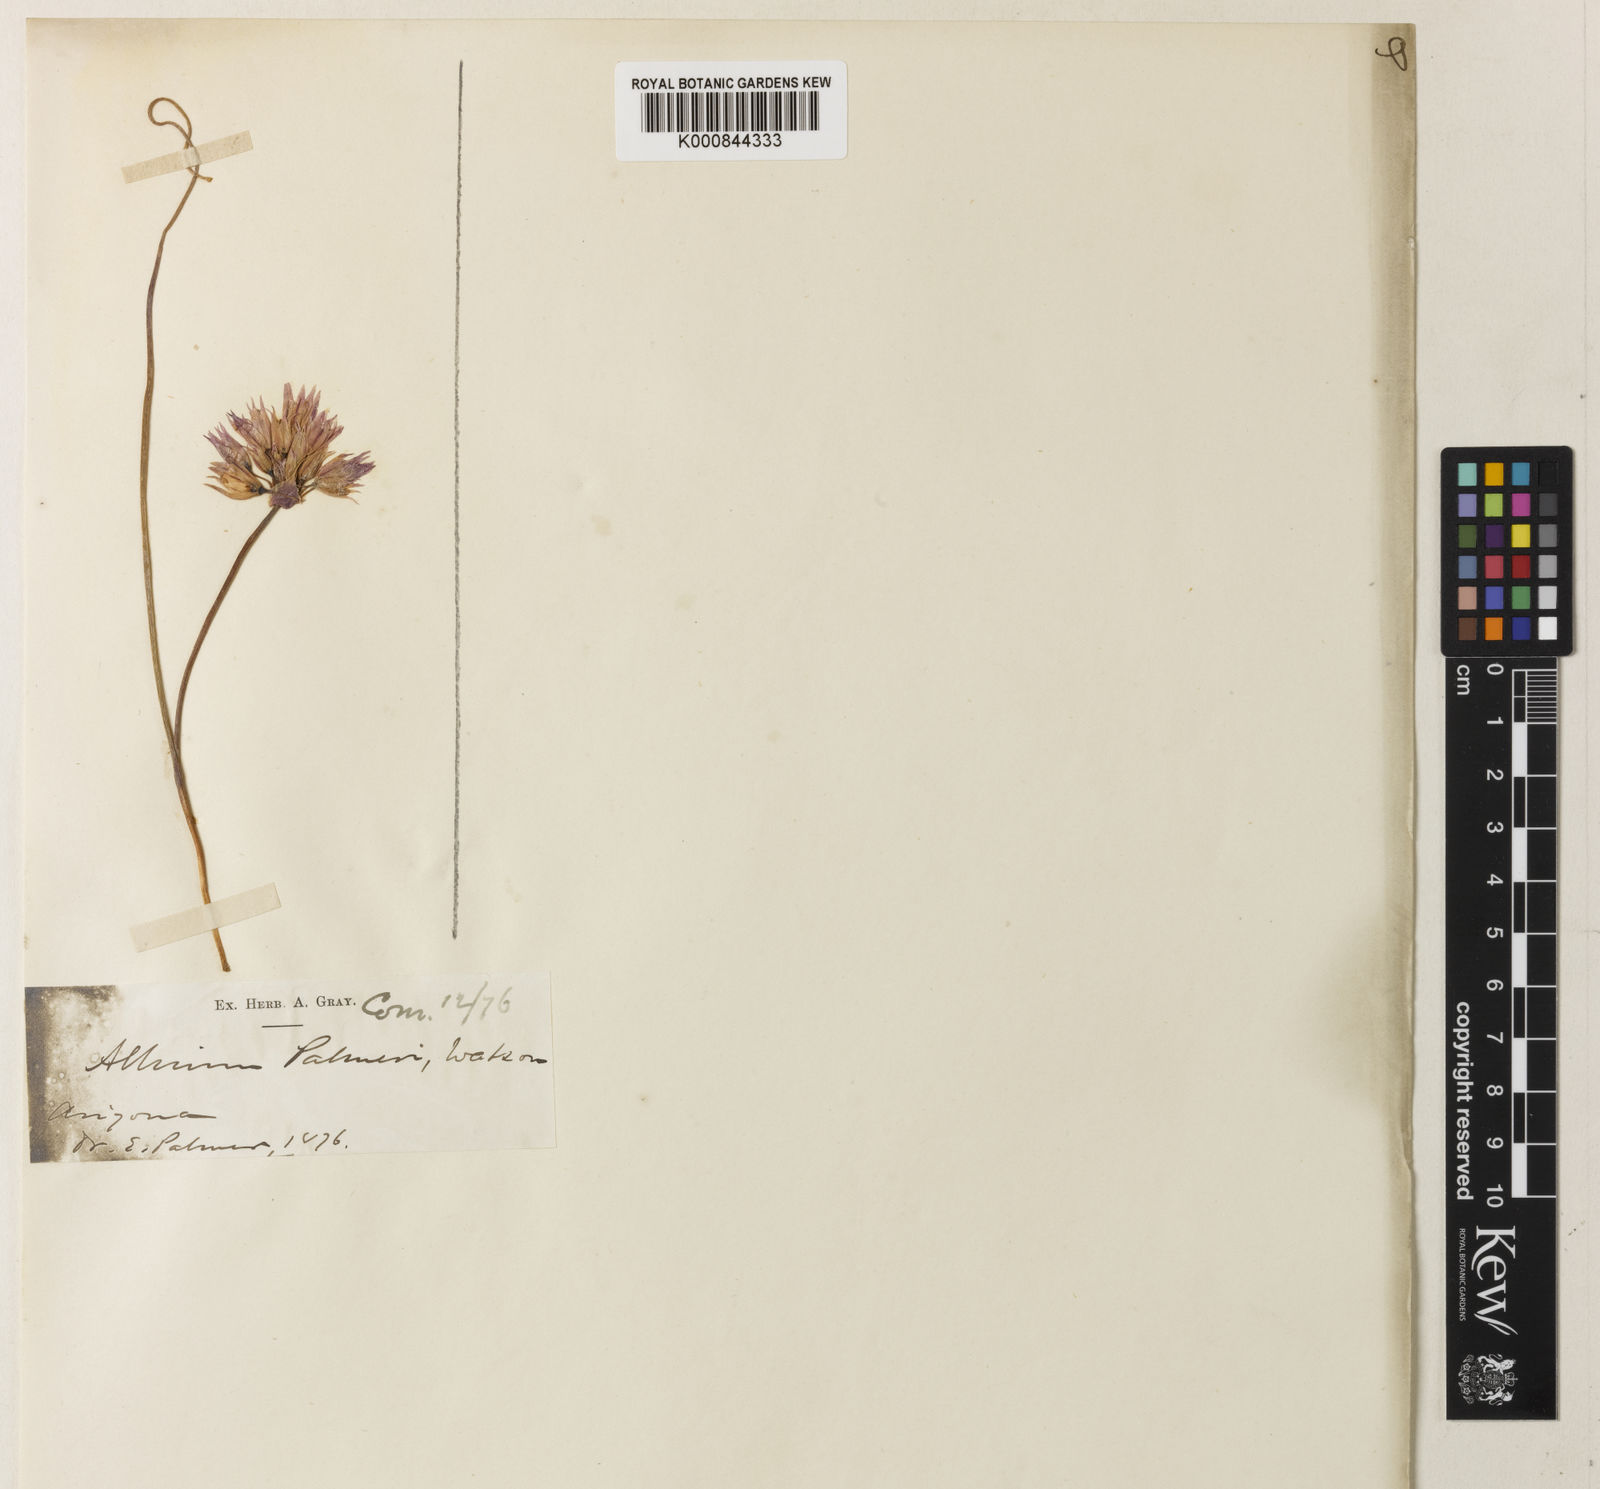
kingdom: Plantae
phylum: Tracheophyta
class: Liliopsida
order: Asparagales
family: Amaryllidaceae
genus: Allium
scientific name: Allium bisceptrum
